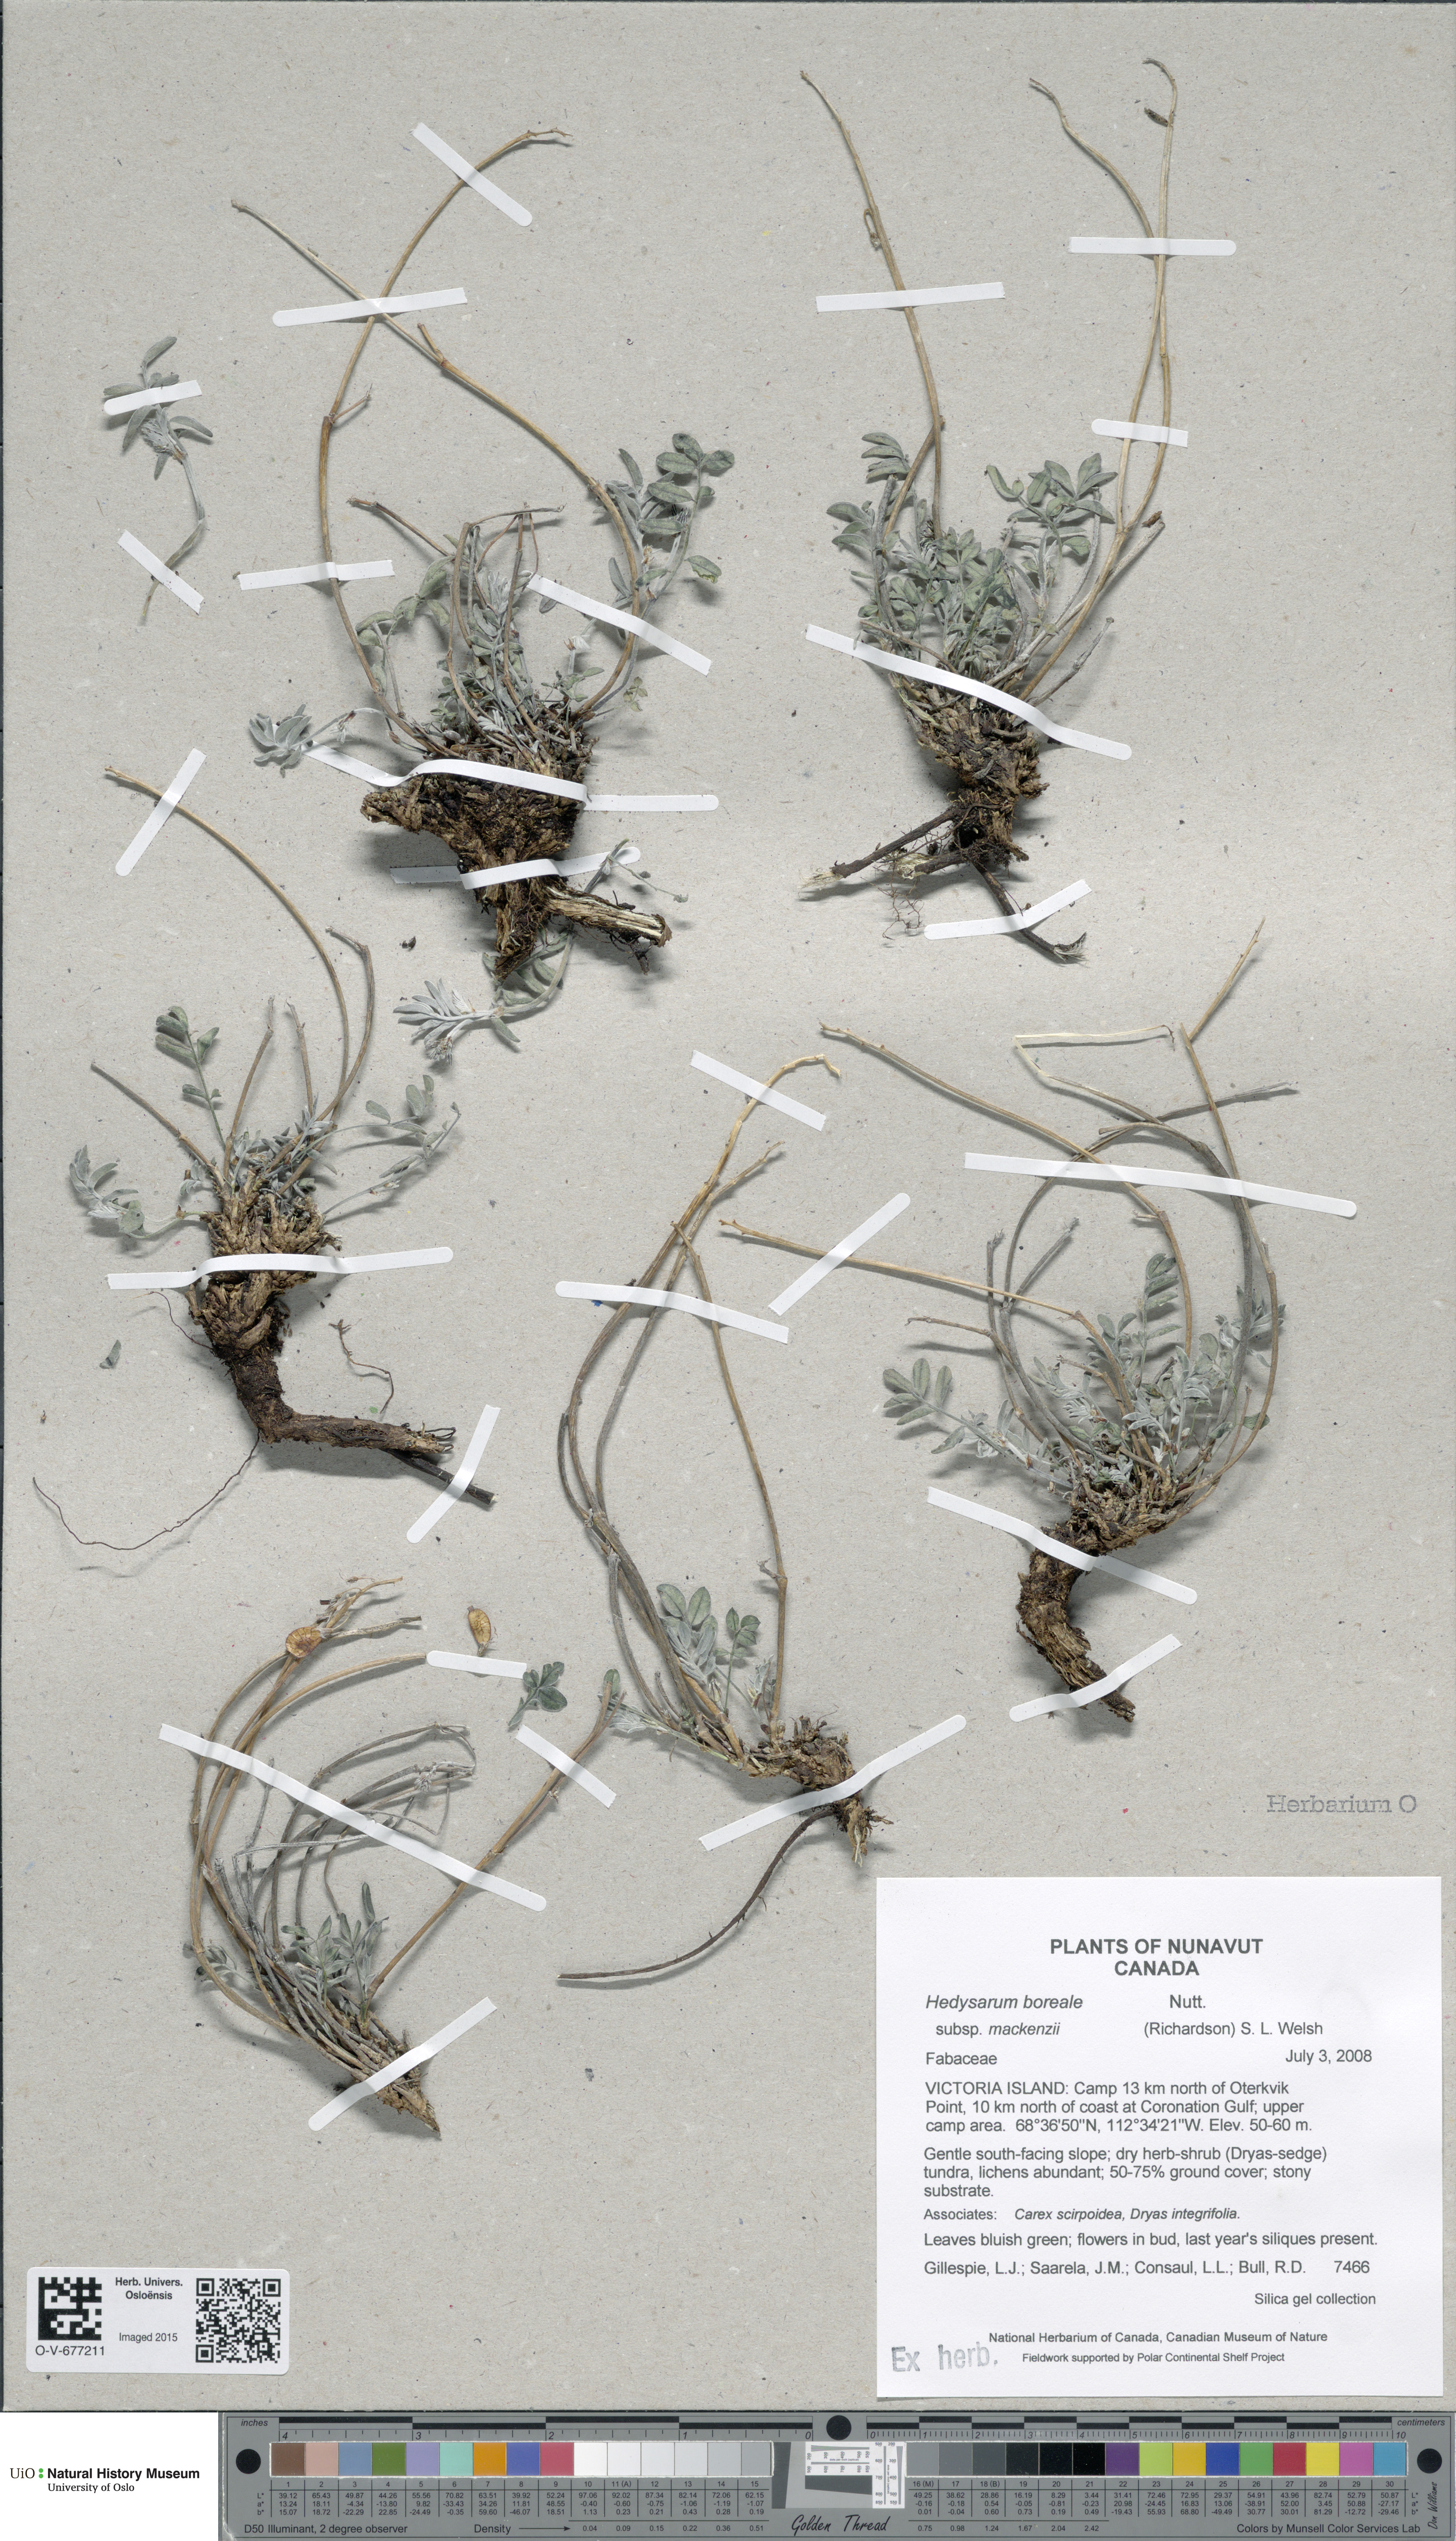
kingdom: Plantae
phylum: Tracheophyta
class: Magnoliopsida
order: Fabales
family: Fabaceae
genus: Hedysarum
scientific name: Hedysarum boreale
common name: Northern sweet-vetch
